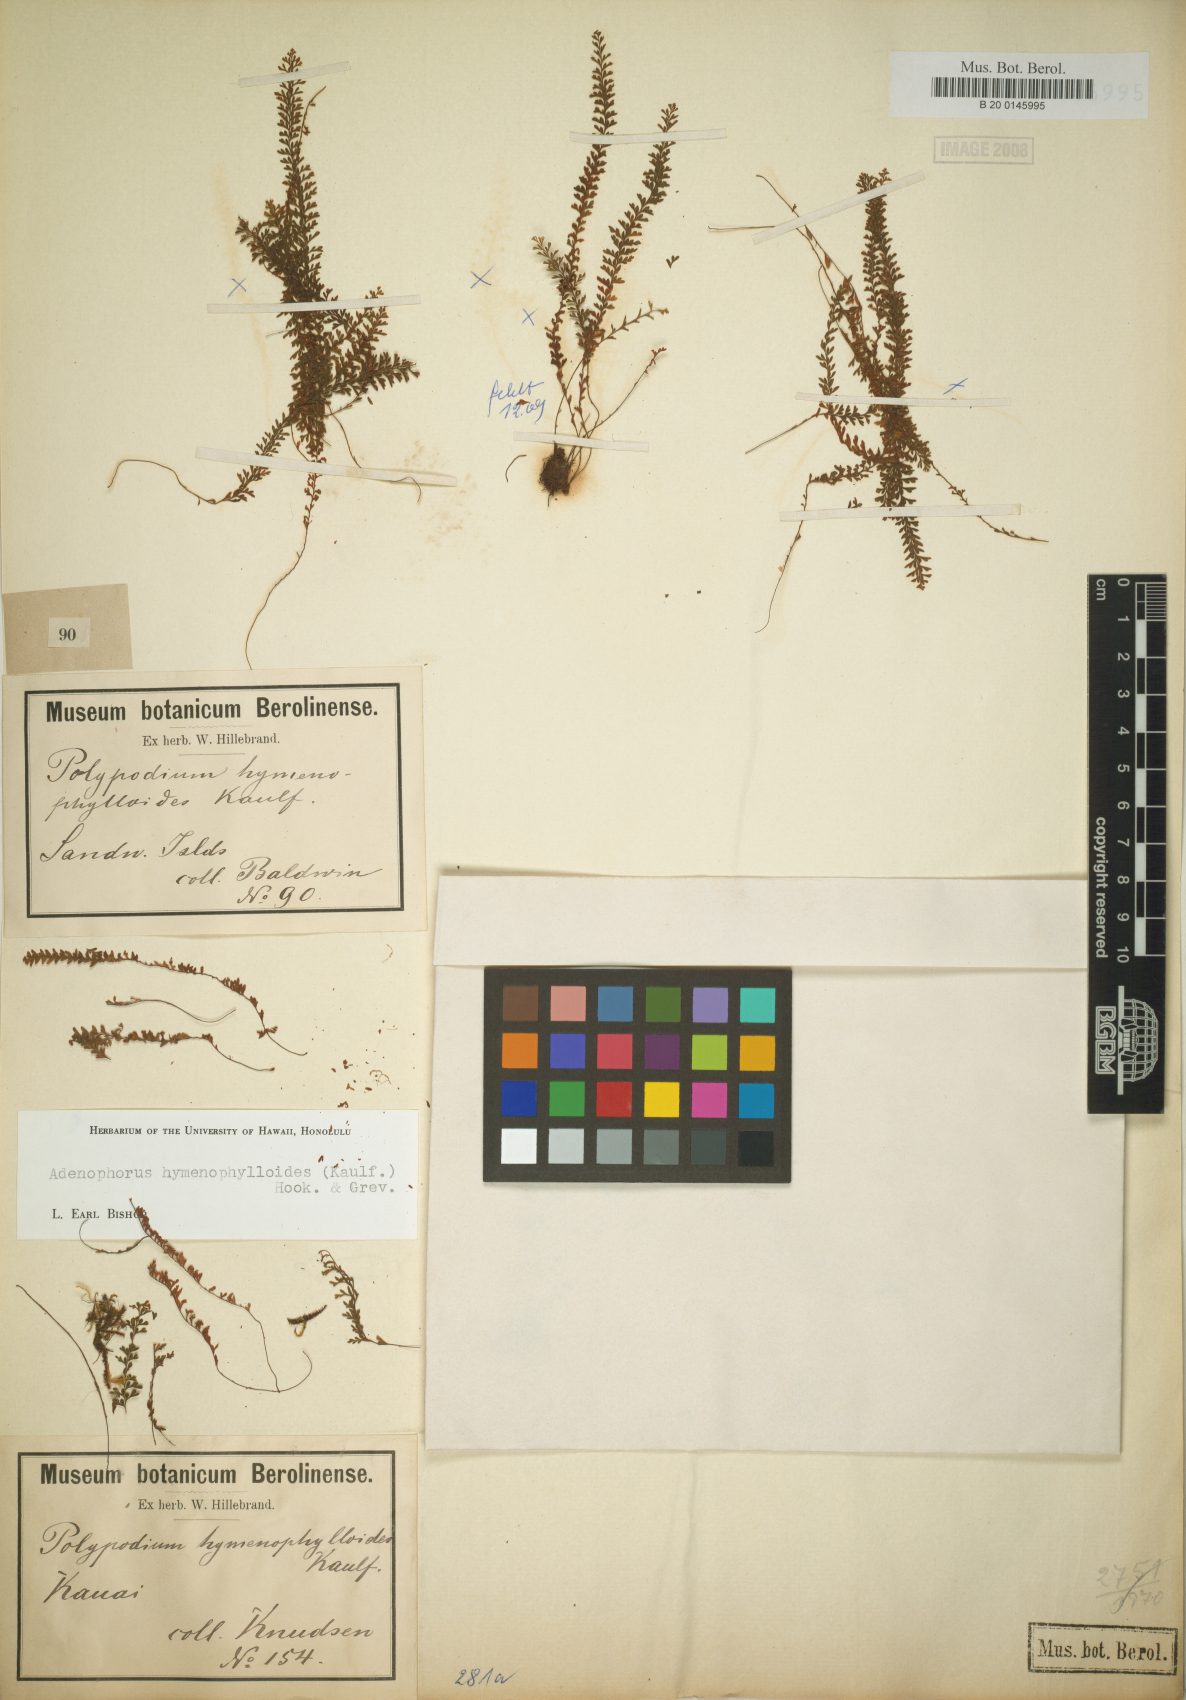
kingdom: Plantae
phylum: Tracheophyta
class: Polypodiopsida
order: Polypodiales
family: Polypodiaceae
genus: Adenophorus
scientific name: Adenophorus hymenophylloides
